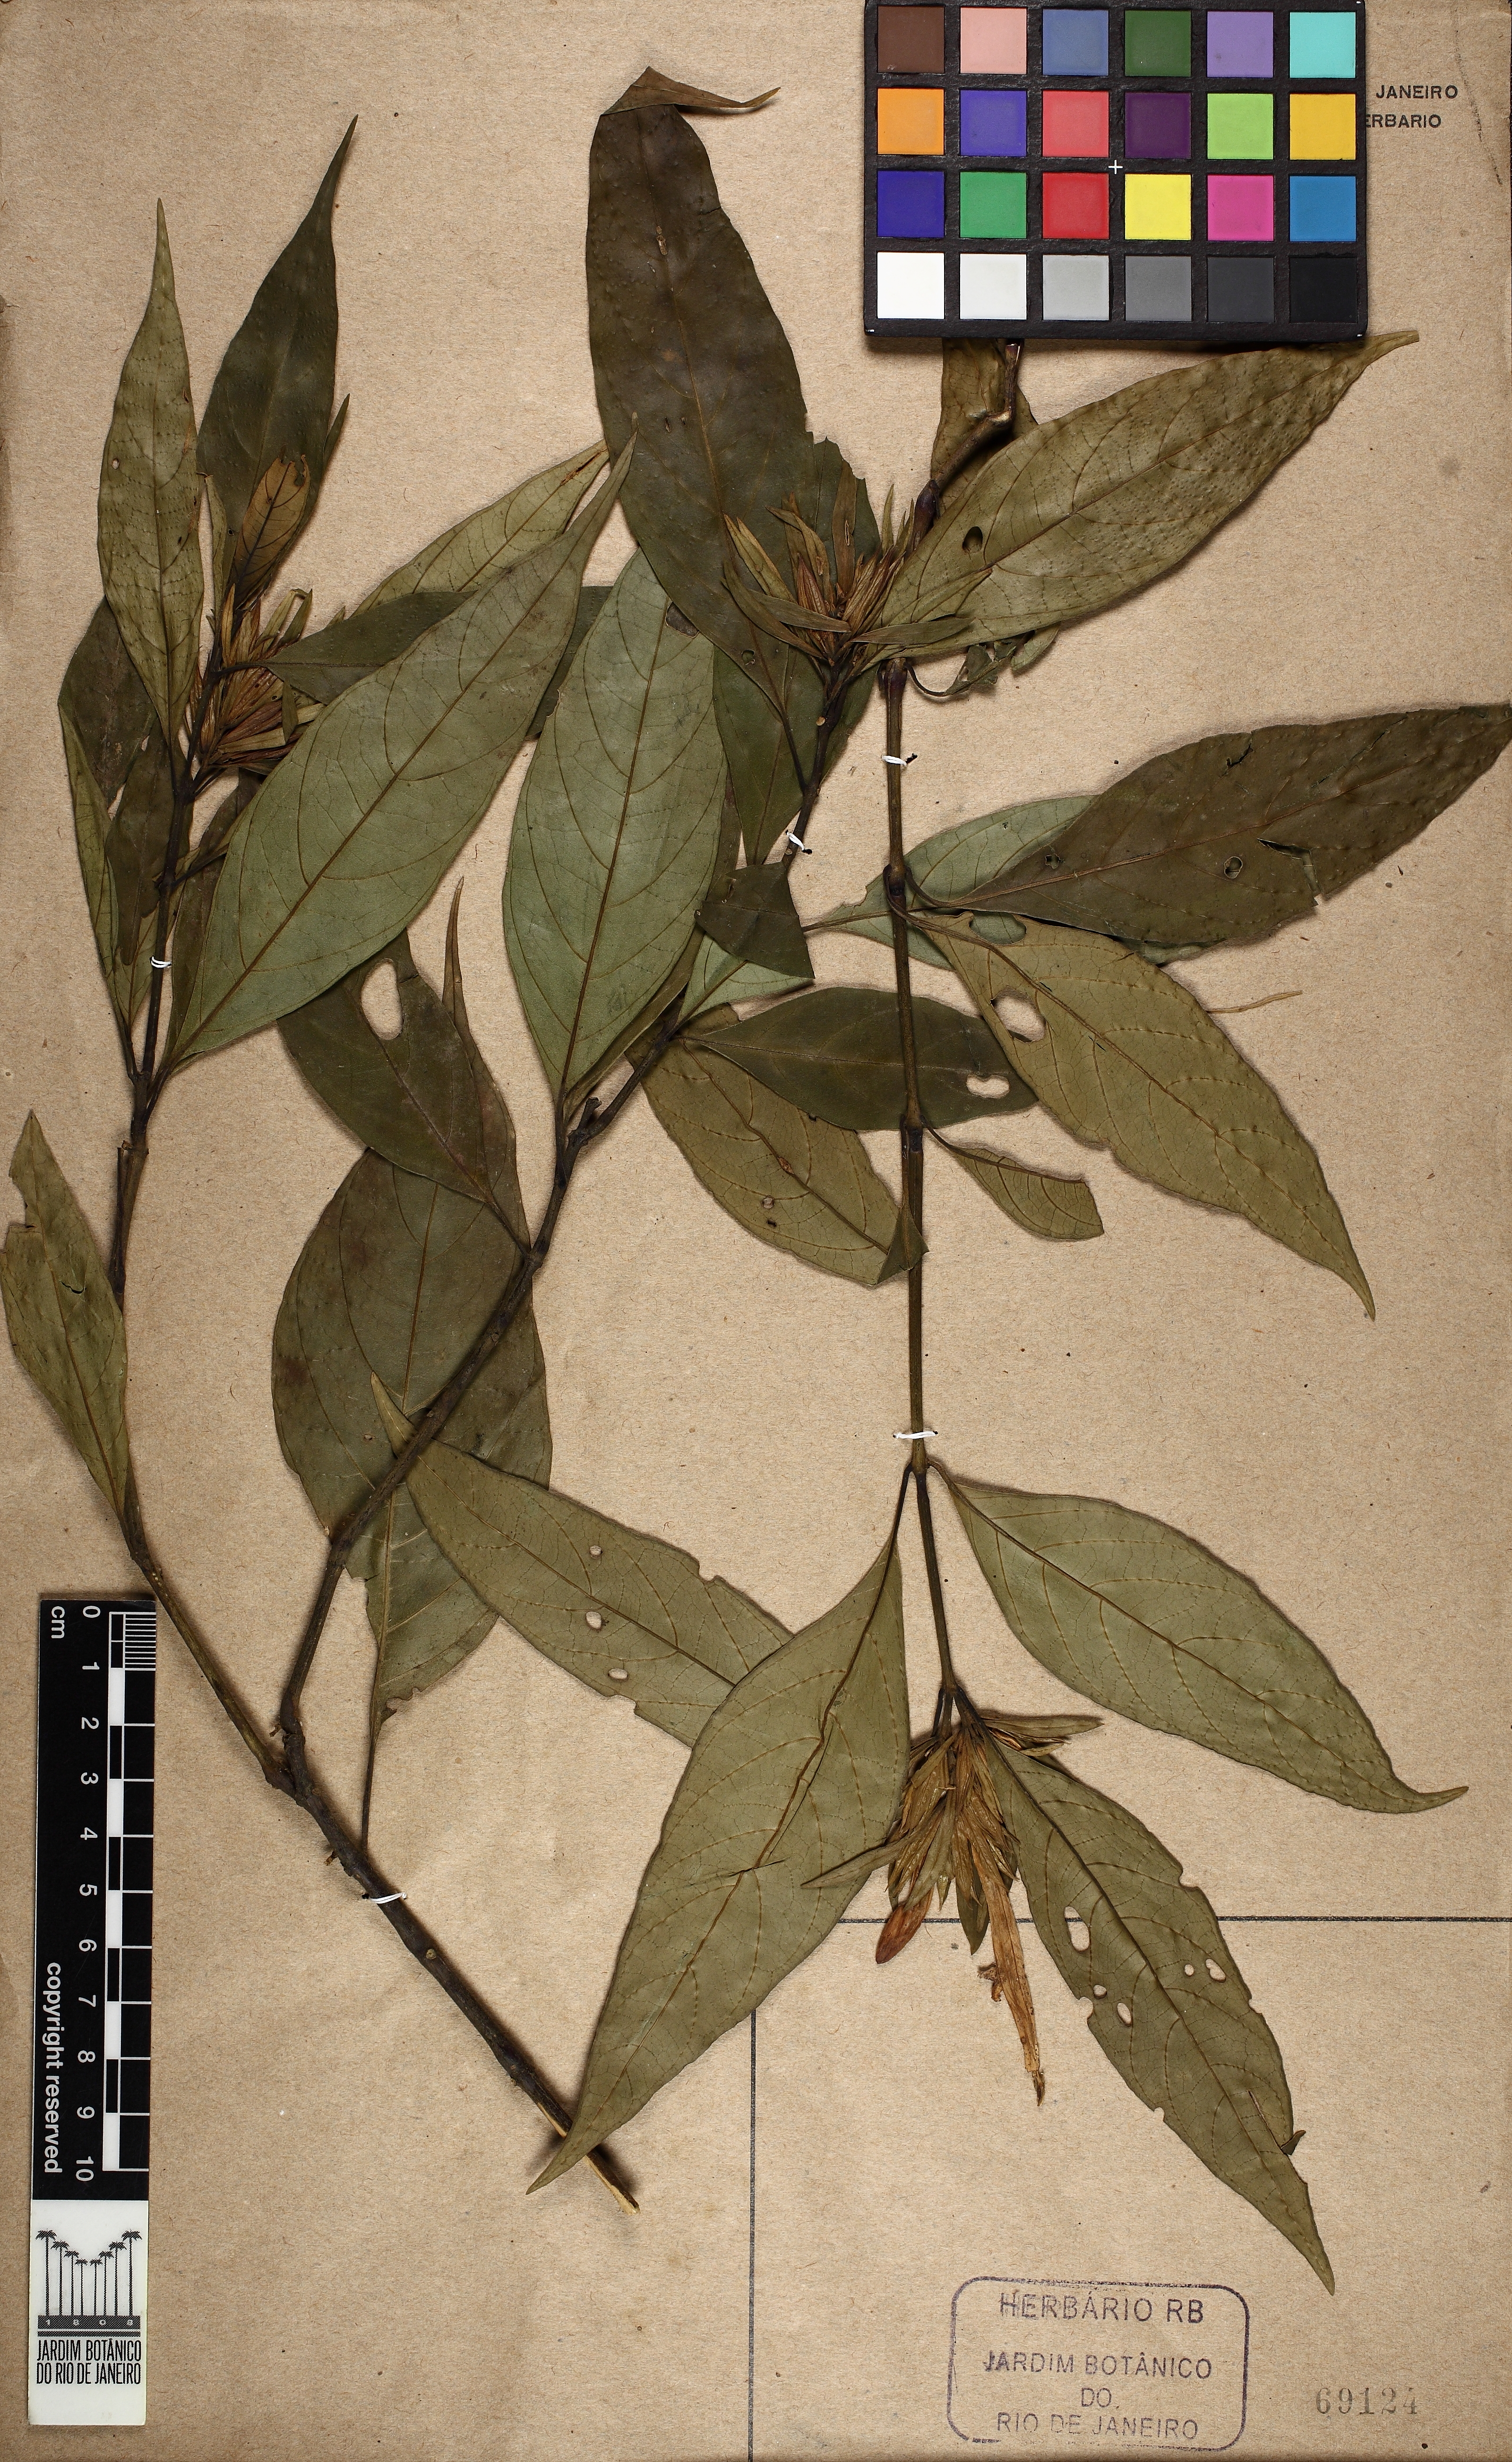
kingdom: Plantae
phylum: Tracheophyta
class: Magnoliopsida
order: Lamiales
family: Acanthaceae
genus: Justicia
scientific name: Justicia plumbaginifolia
